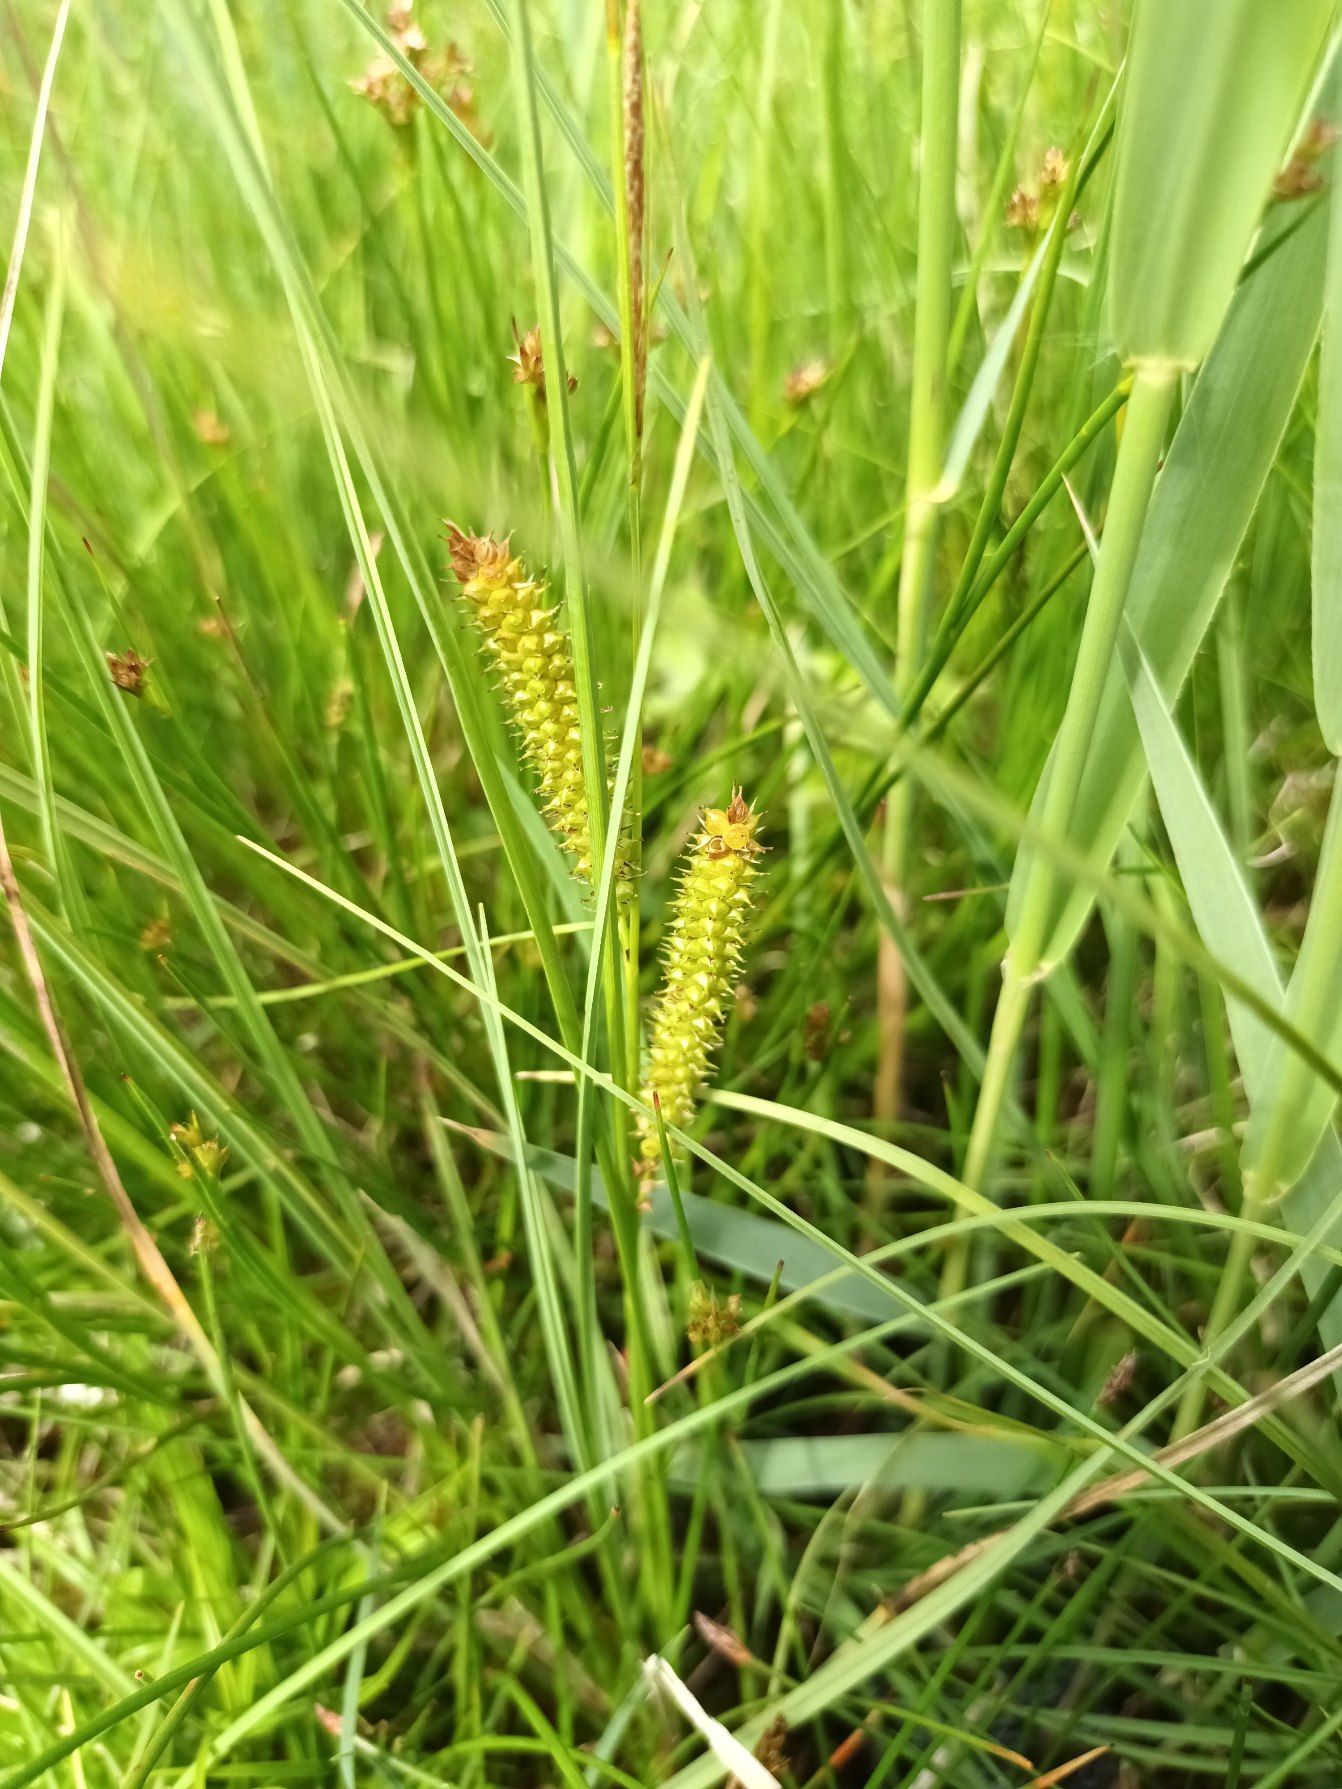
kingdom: Plantae
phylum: Tracheophyta
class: Liliopsida
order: Poales
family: Cyperaceae
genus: Carex
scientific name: Carex rostrata
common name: Næb-star
